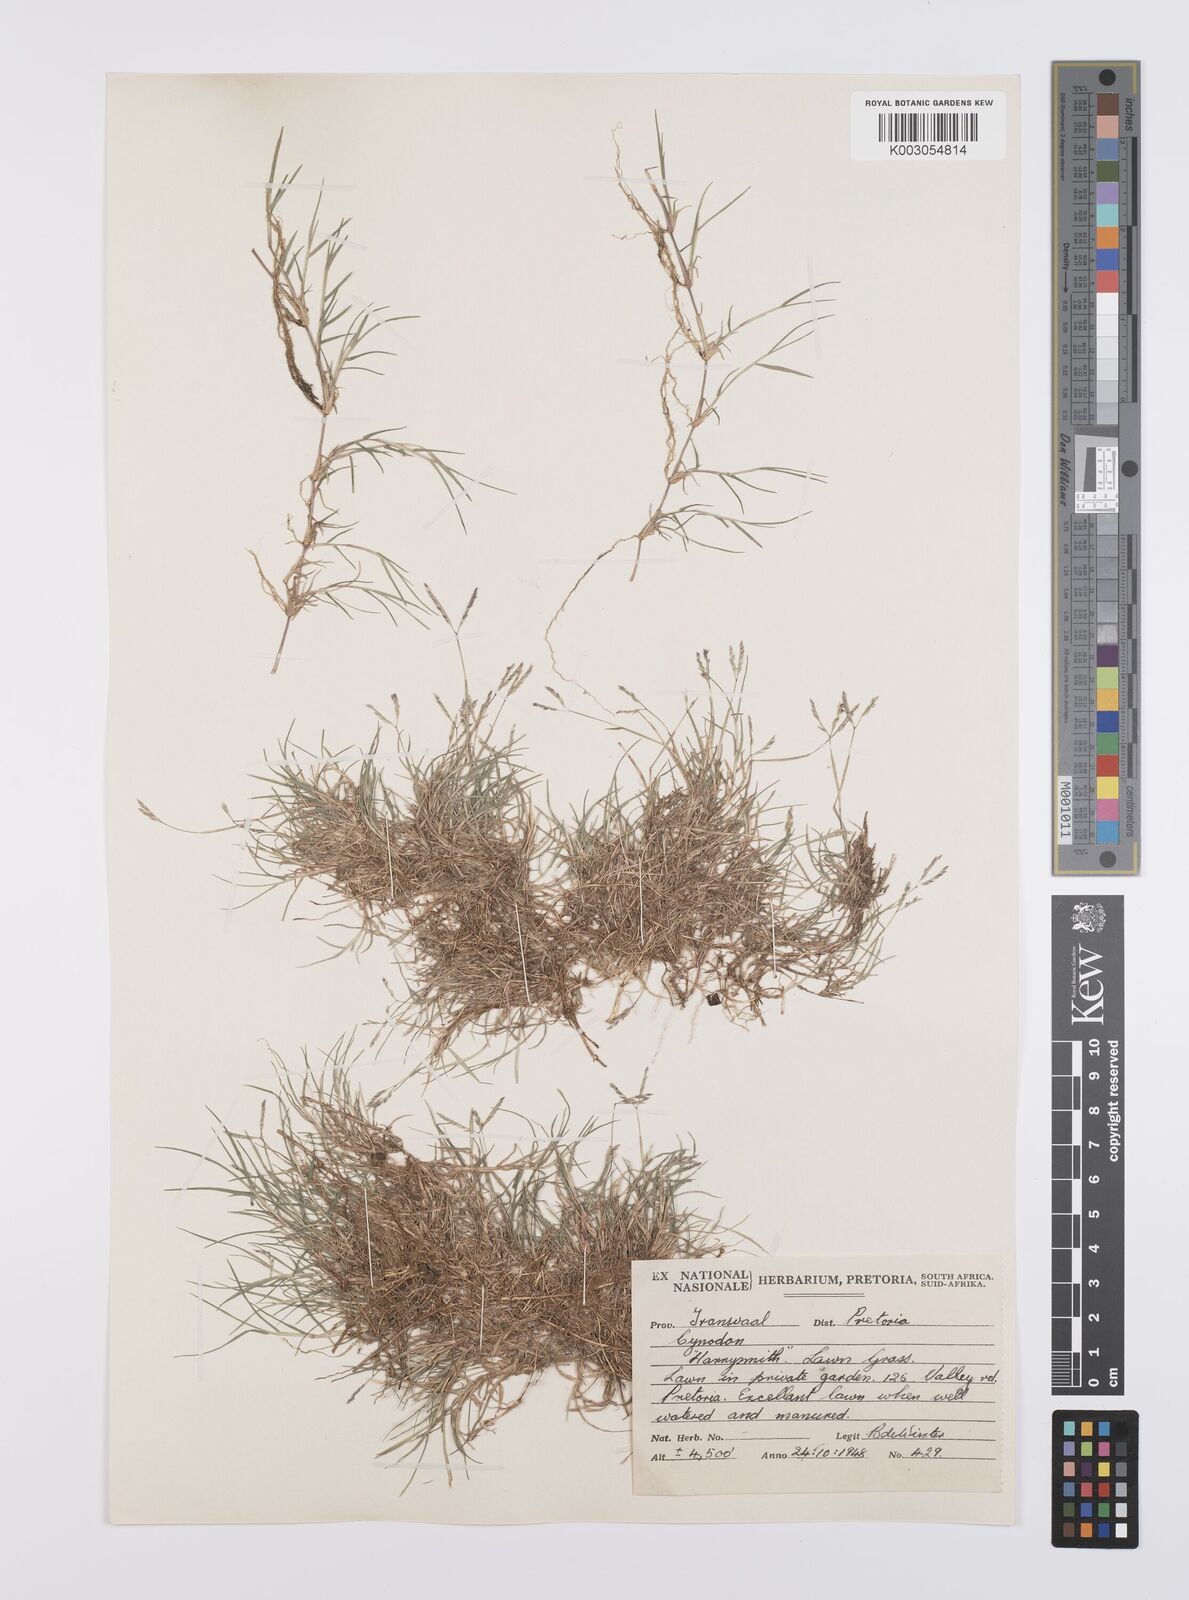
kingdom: Plantae
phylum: Tracheophyta
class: Liliopsida
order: Poales
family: Poaceae
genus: Cynodon
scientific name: Cynodon dactylon
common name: Bermuda grass
